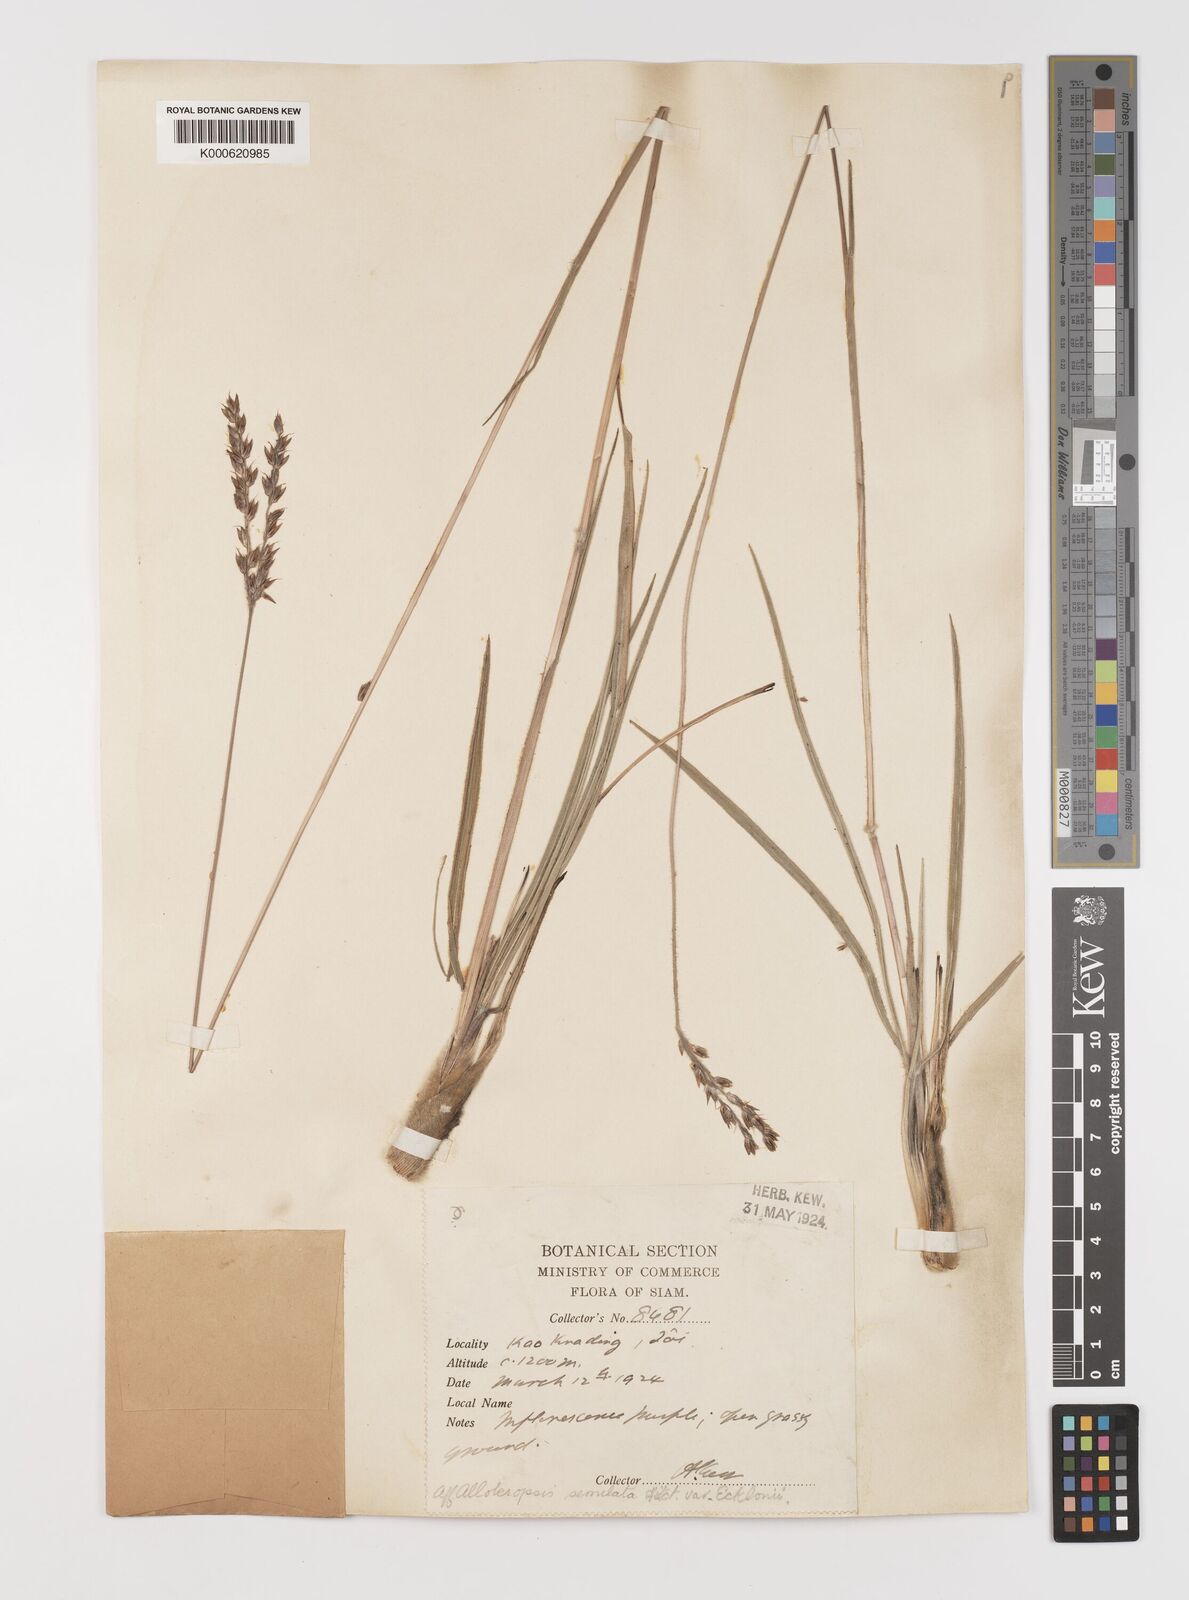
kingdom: Plantae
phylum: Tracheophyta
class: Liliopsida
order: Poales
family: Poaceae
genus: Alloteropsis
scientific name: Alloteropsis semialata
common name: Cockatoo grass
